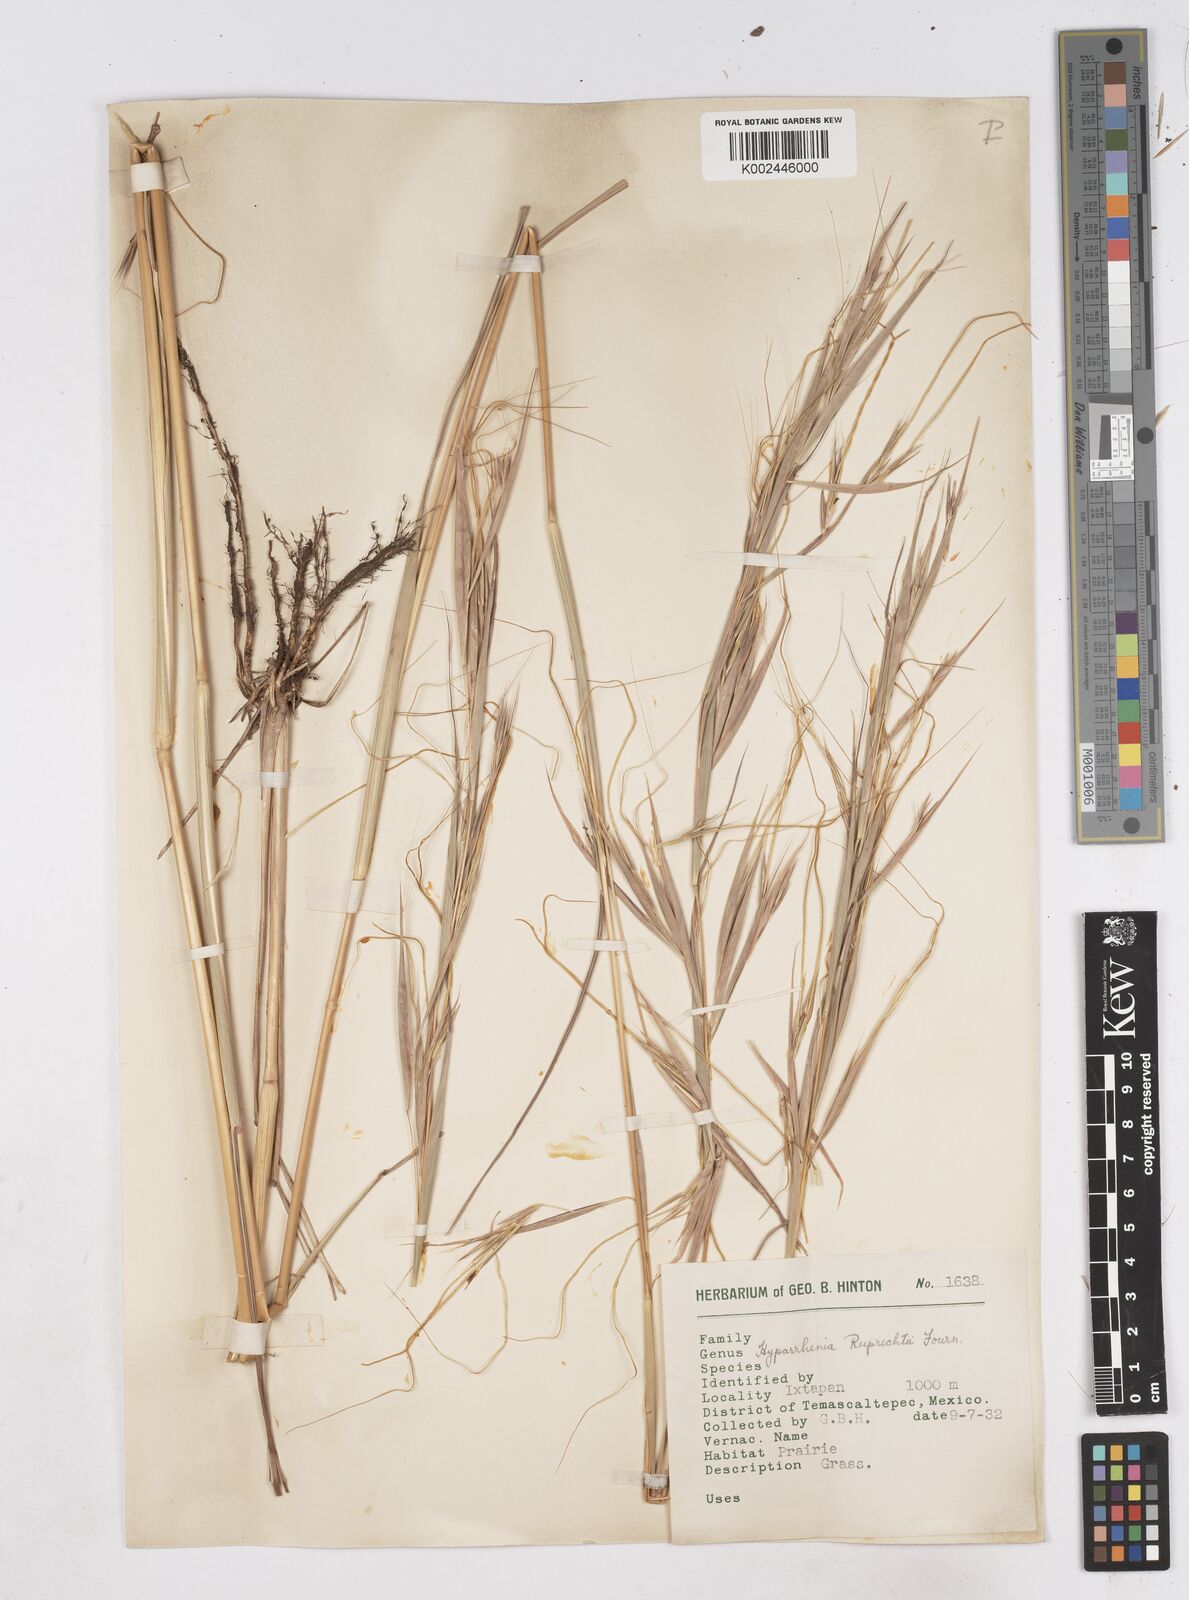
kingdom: Plantae
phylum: Tracheophyta
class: Liliopsida
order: Poales
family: Poaceae
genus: Hyperthelia
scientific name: Hyperthelia dissoluta
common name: Yellow thatching grass
